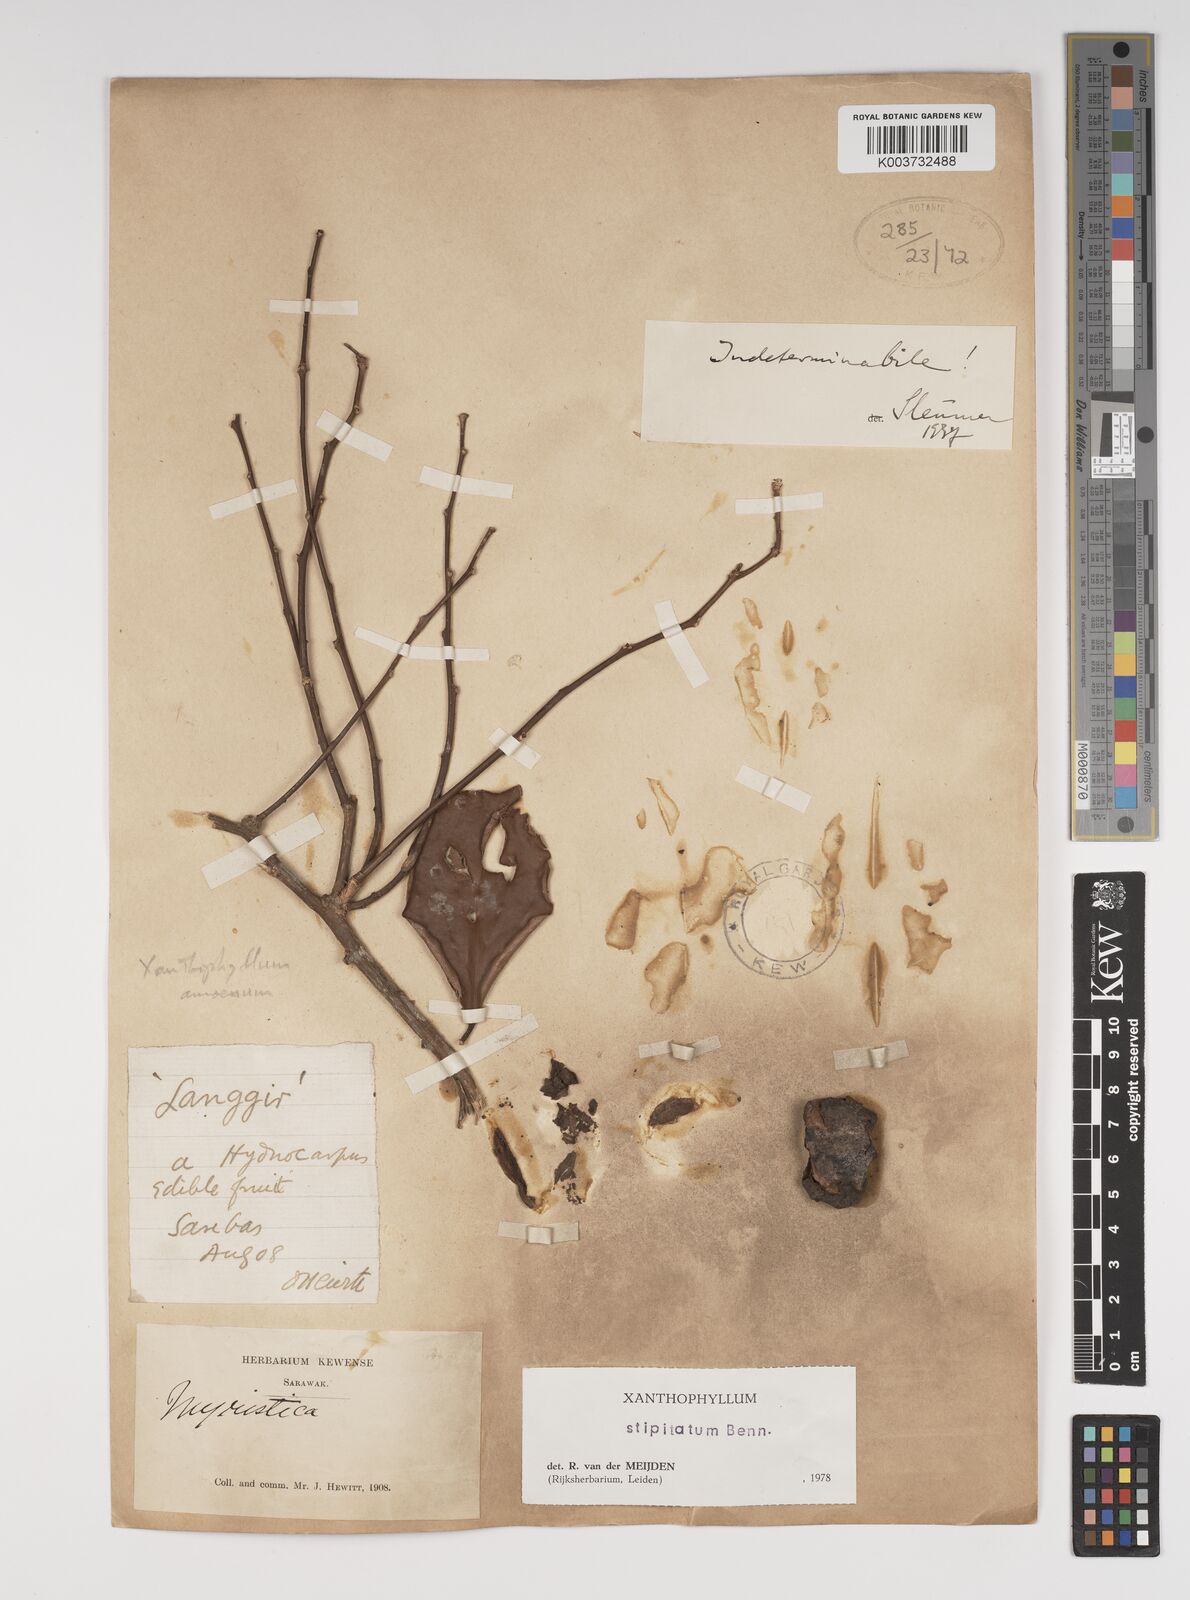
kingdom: Plantae
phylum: Tracheophyta
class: Magnoliopsida
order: Fabales
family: Polygalaceae
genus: Xanthophyllum
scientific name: Xanthophyllum stipitatum
